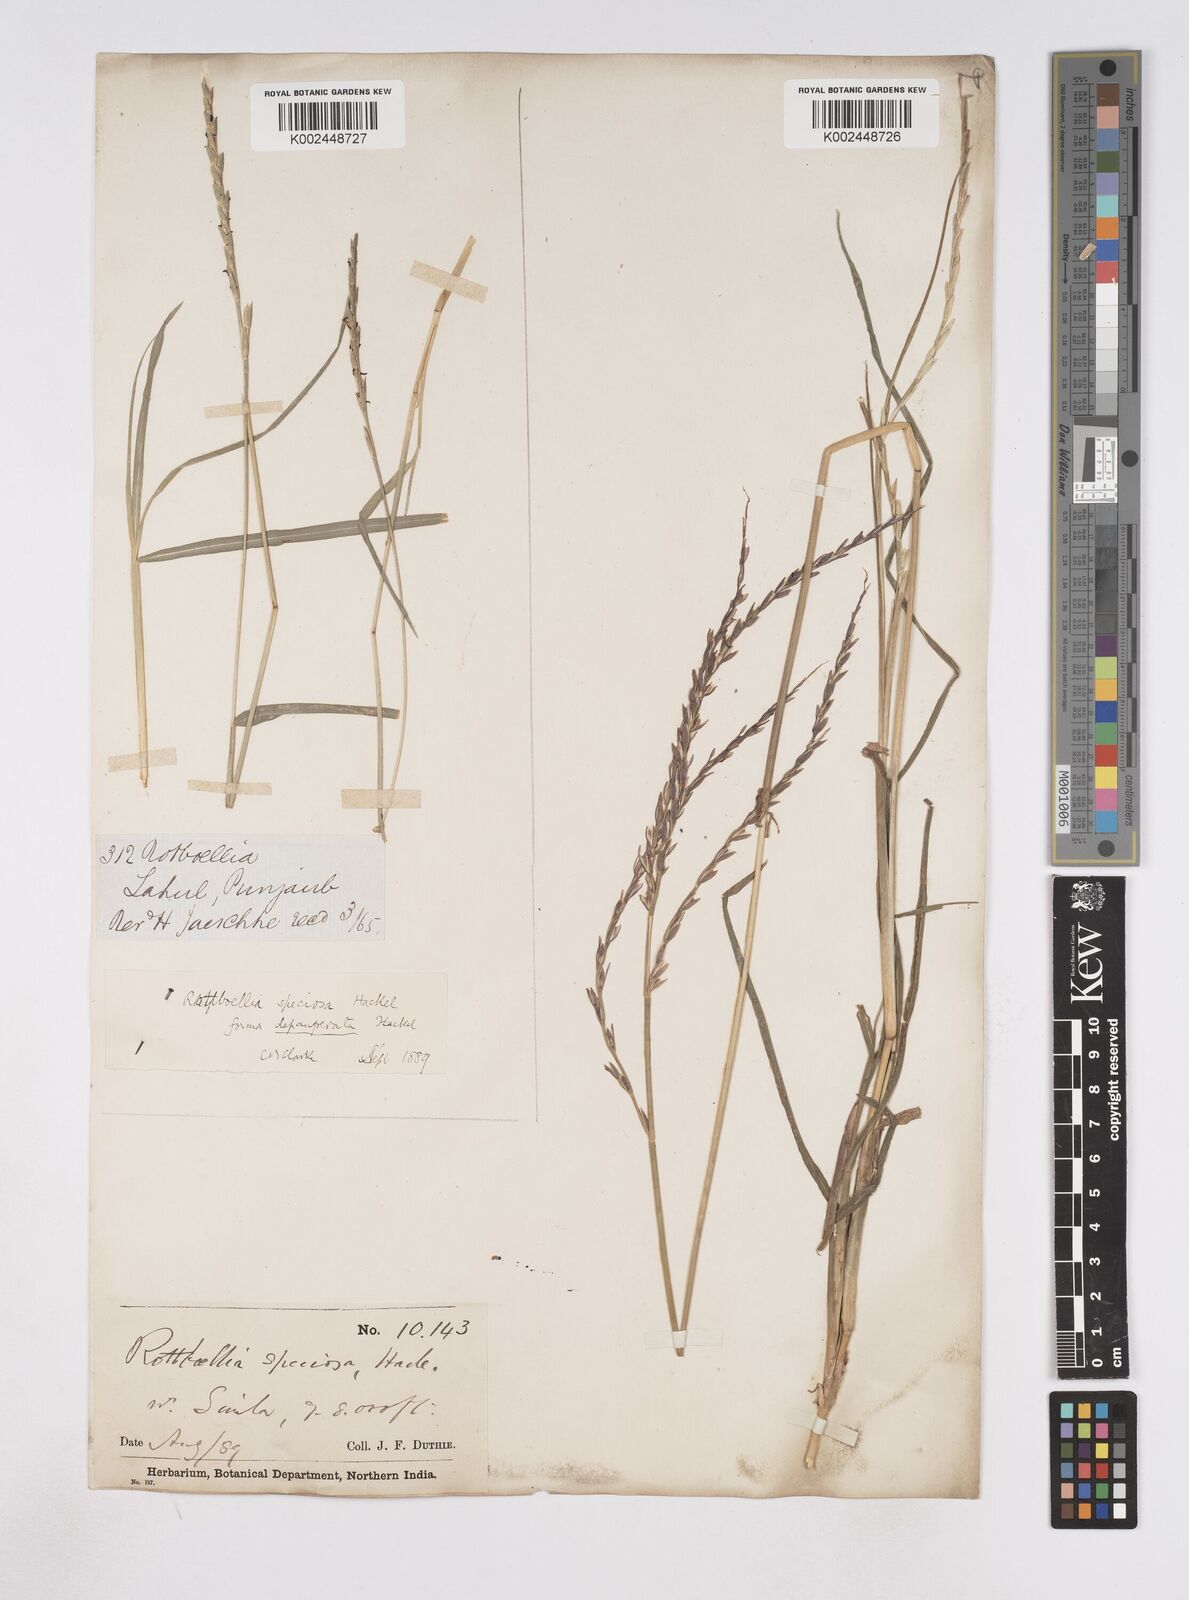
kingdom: Plantae
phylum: Tracheophyta
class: Liliopsida
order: Poales
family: Poaceae
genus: Phacelurus
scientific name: Phacelurus speciosus
